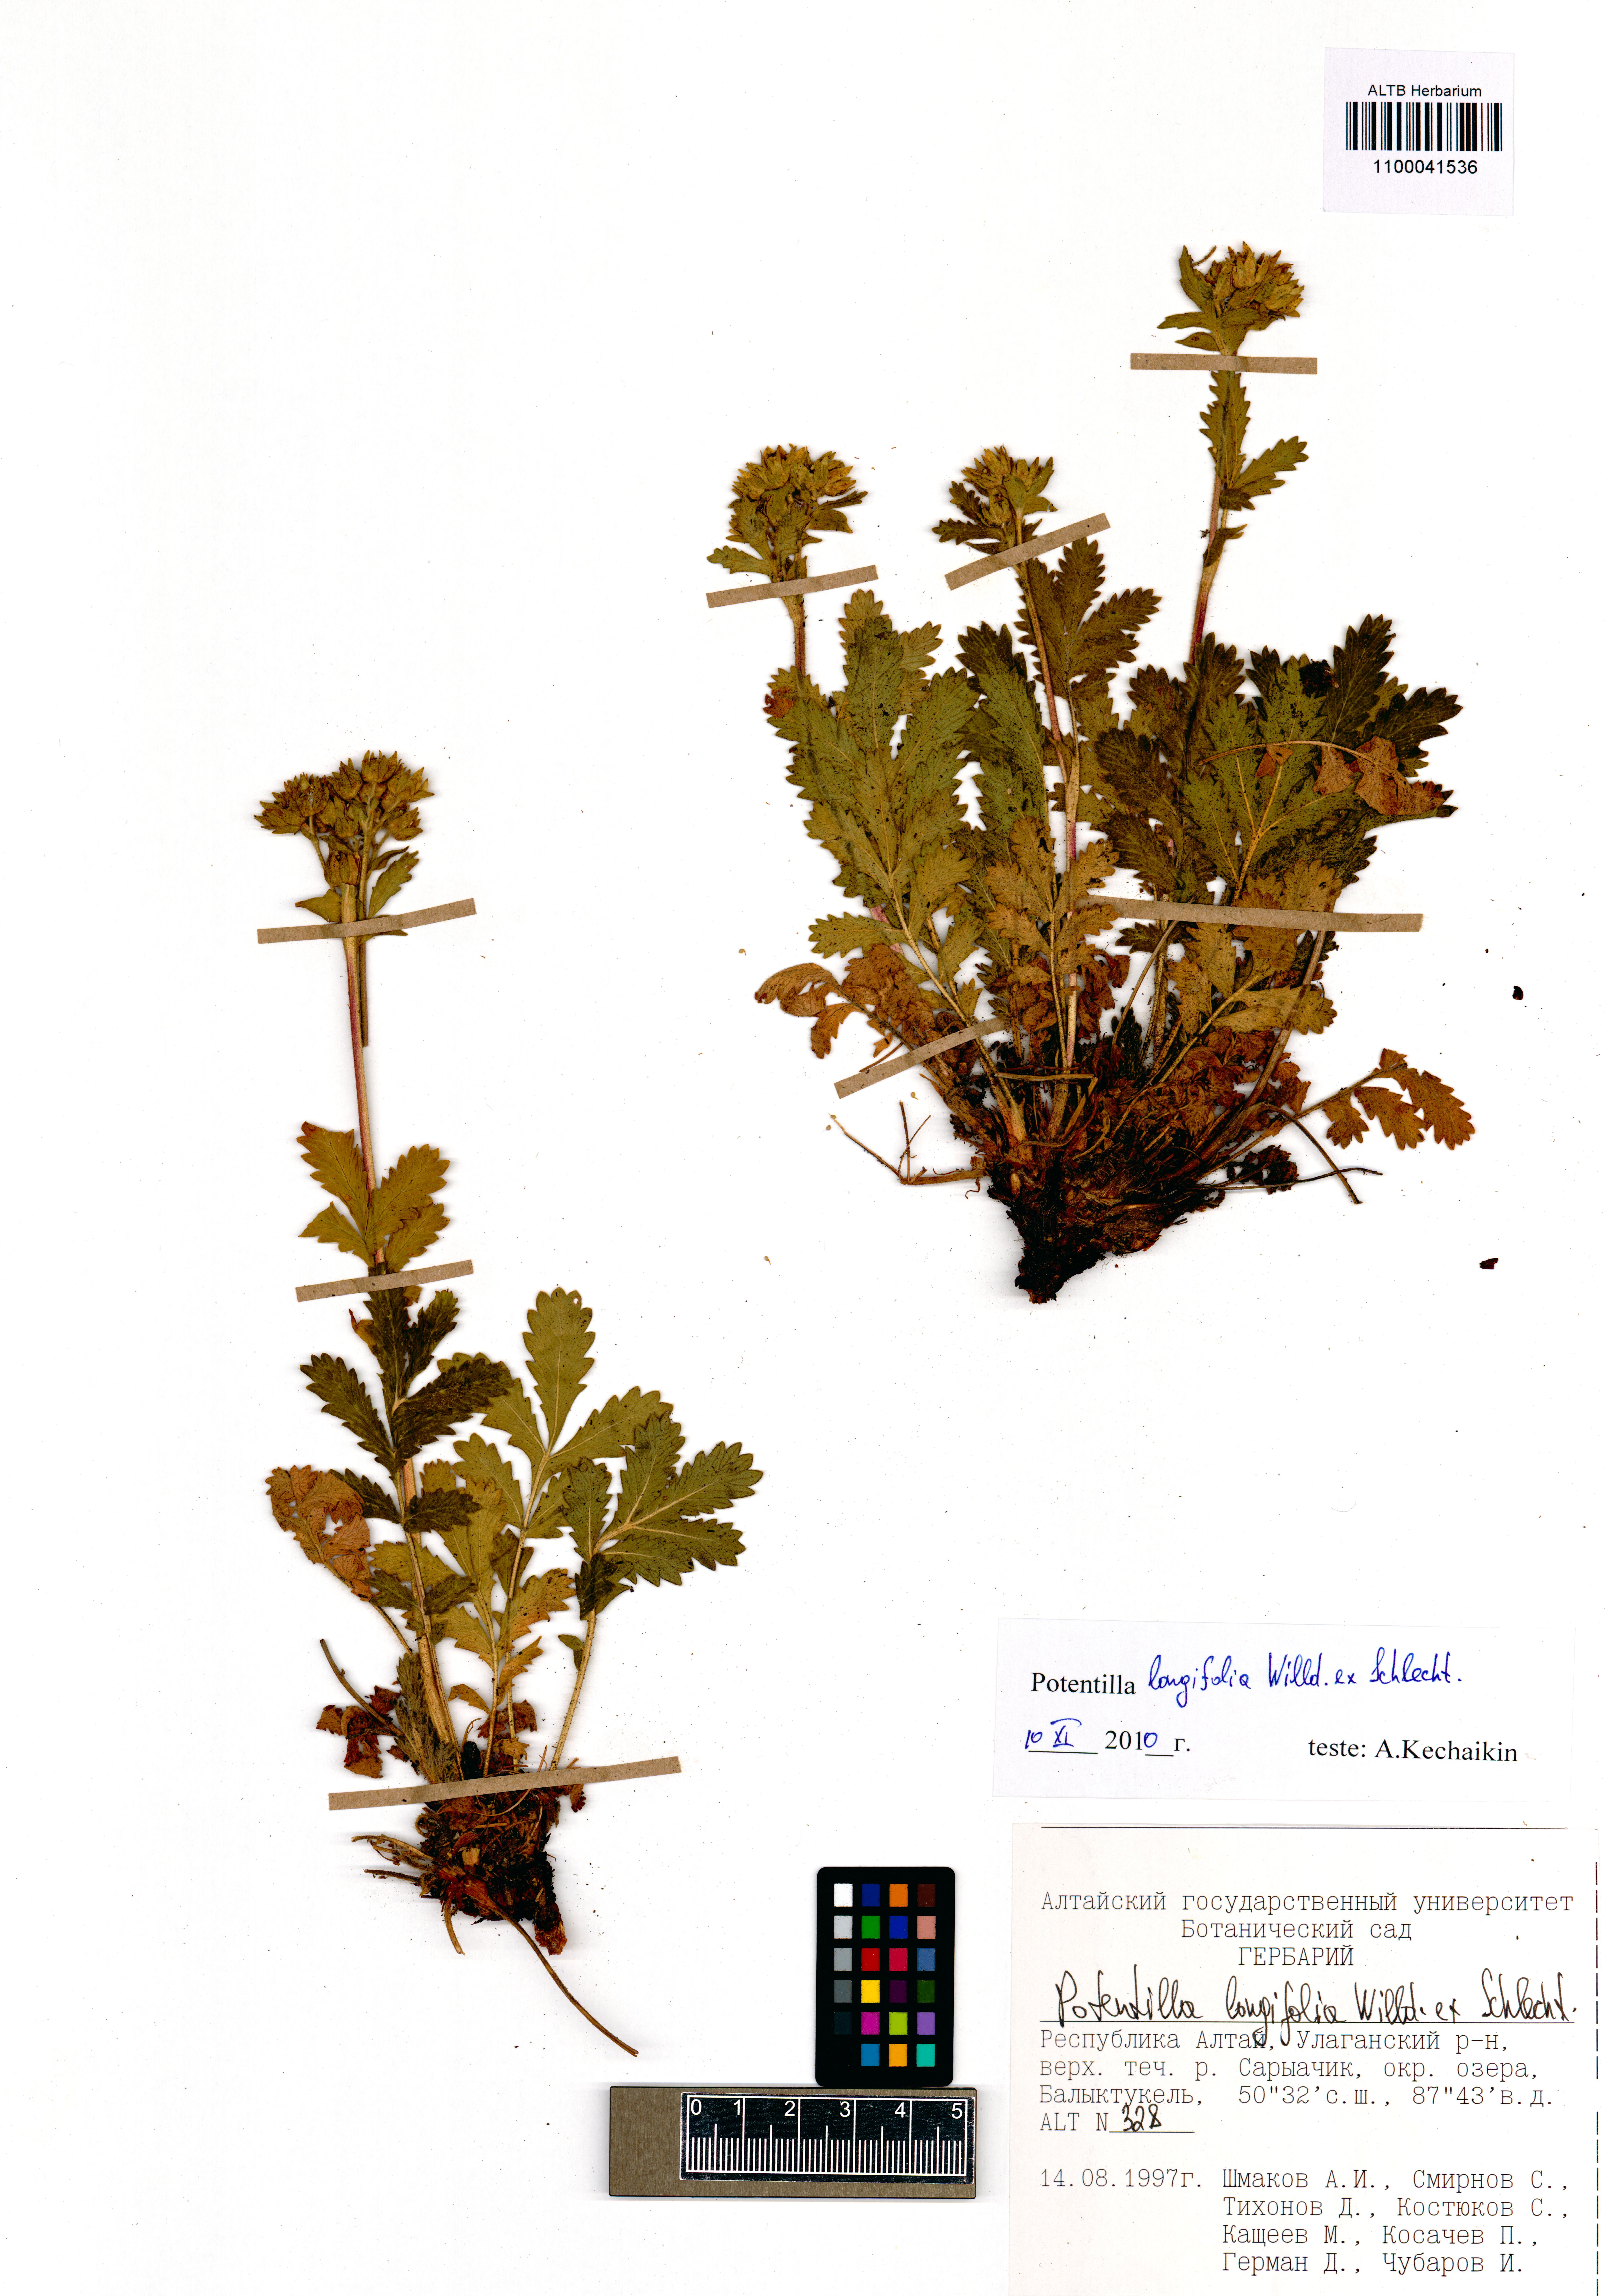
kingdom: Plantae
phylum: Tracheophyta
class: Magnoliopsida
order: Rosales
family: Rosaceae
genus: Potentilla
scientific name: Potentilla longifolia
